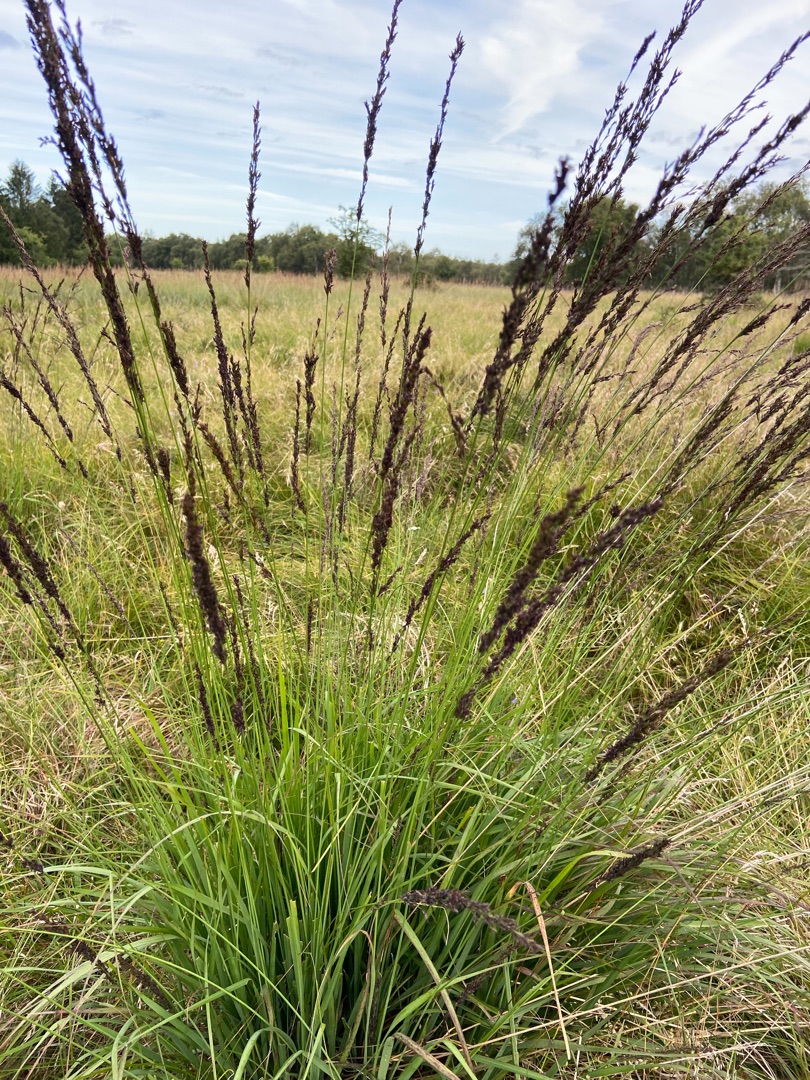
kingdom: Plantae
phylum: Tracheophyta
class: Liliopsida
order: Poales
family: Poaceae
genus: Molinia
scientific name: Molinia caerulea
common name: Blåtop
